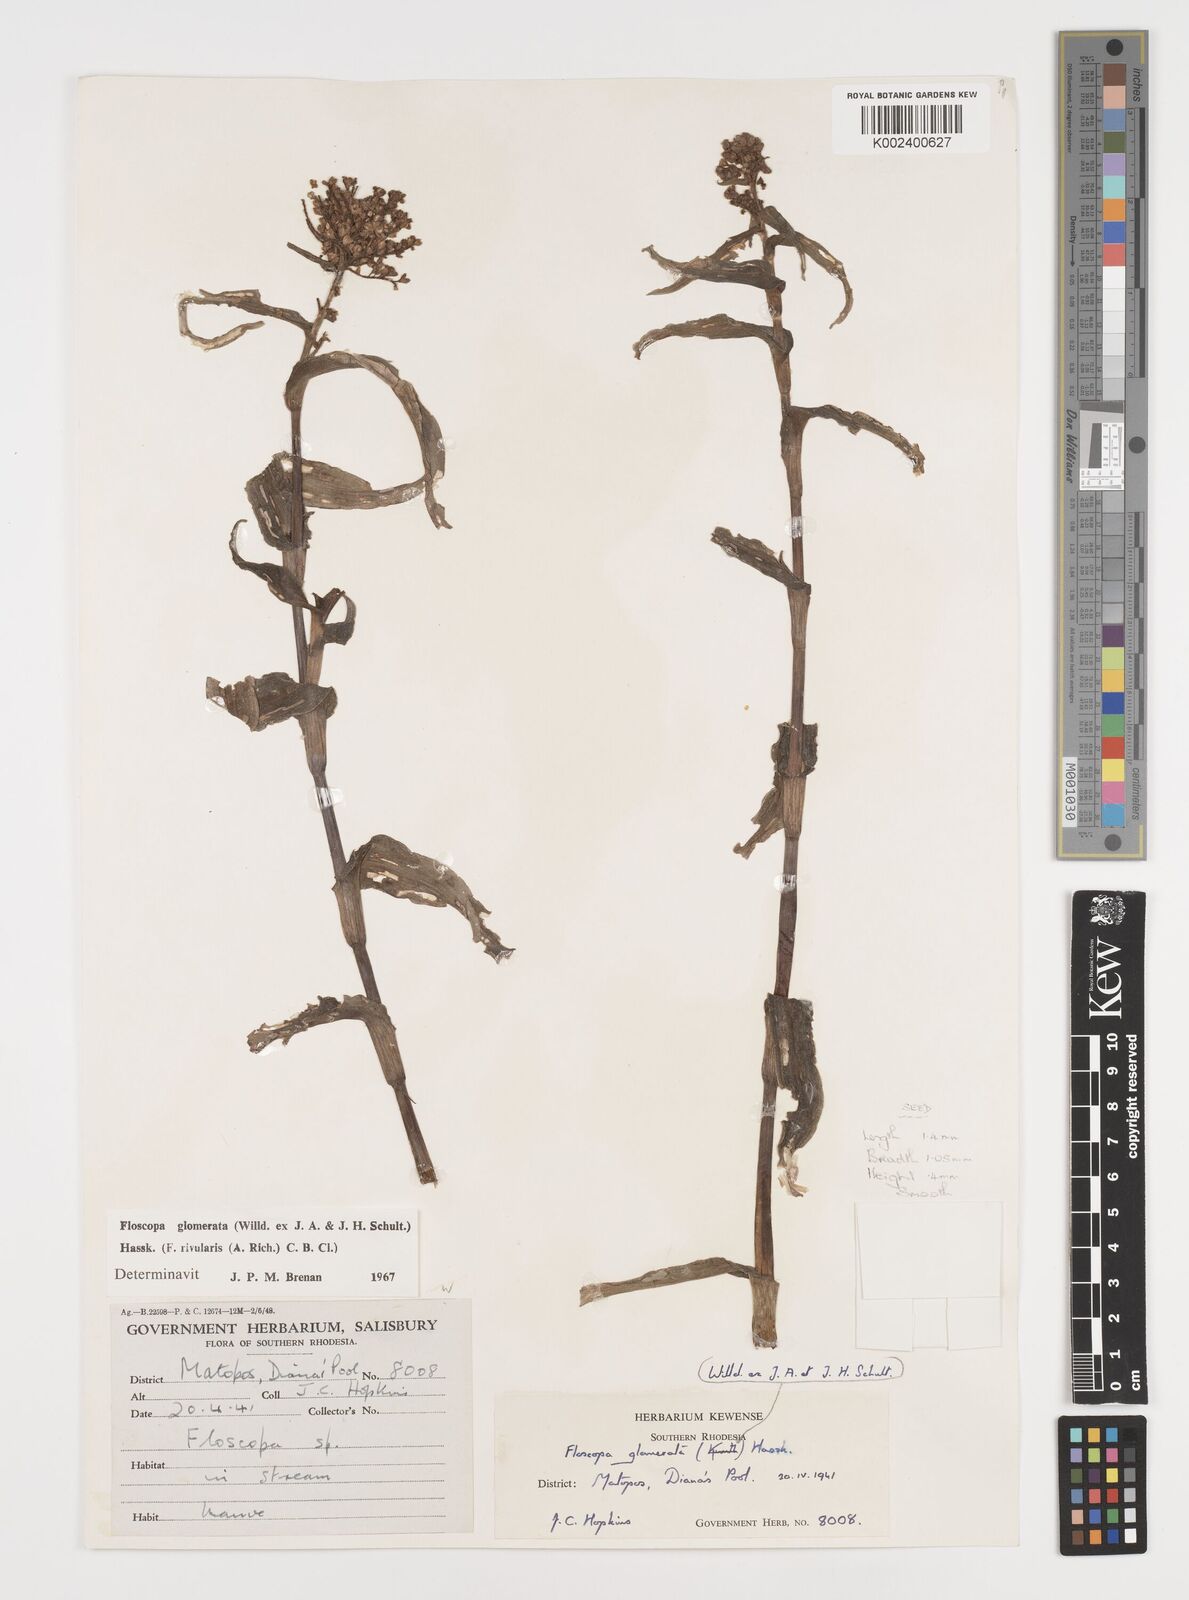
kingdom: Plantae
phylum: Tracheophyta
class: Liliopsida
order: Commelinales
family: Commelinaceae
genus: Floscopa
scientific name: Floscopa glomerata
